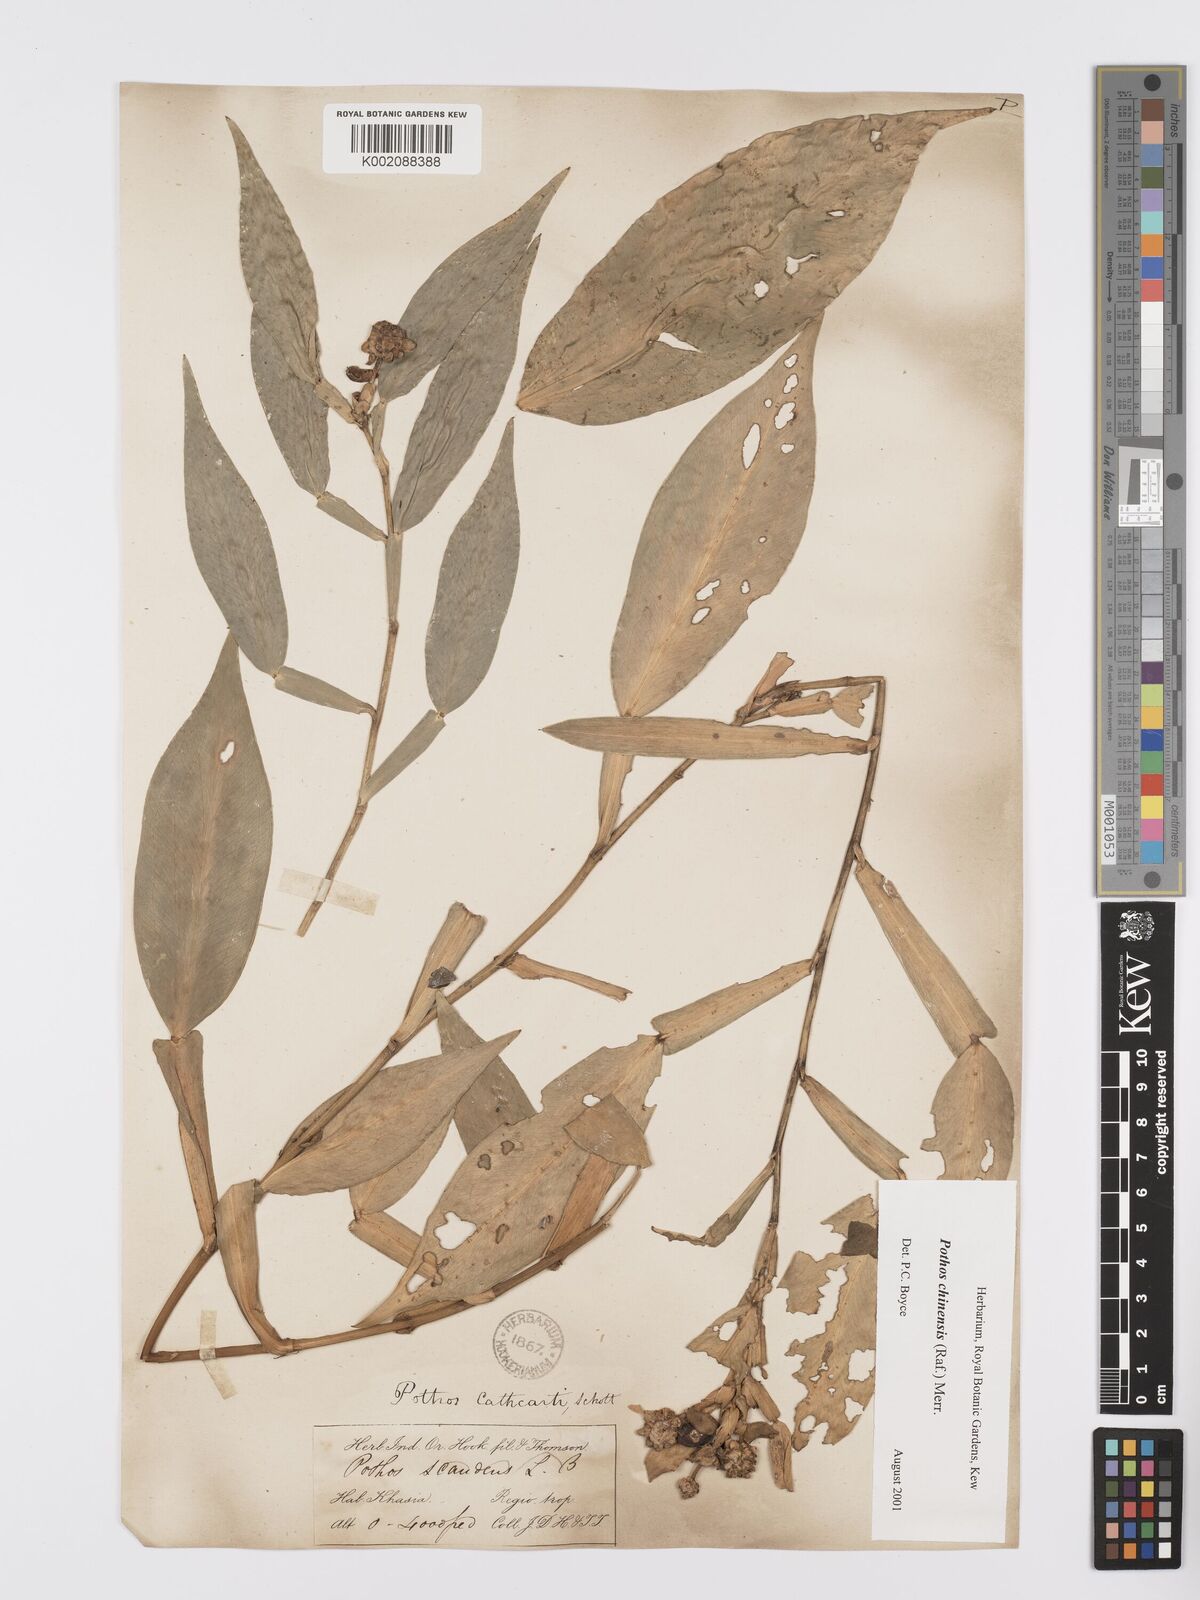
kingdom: Plantae
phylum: Tracheophyta
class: Liliopsida
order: Alismatales
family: Araceae
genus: Pothos
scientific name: Pothos chinensis
